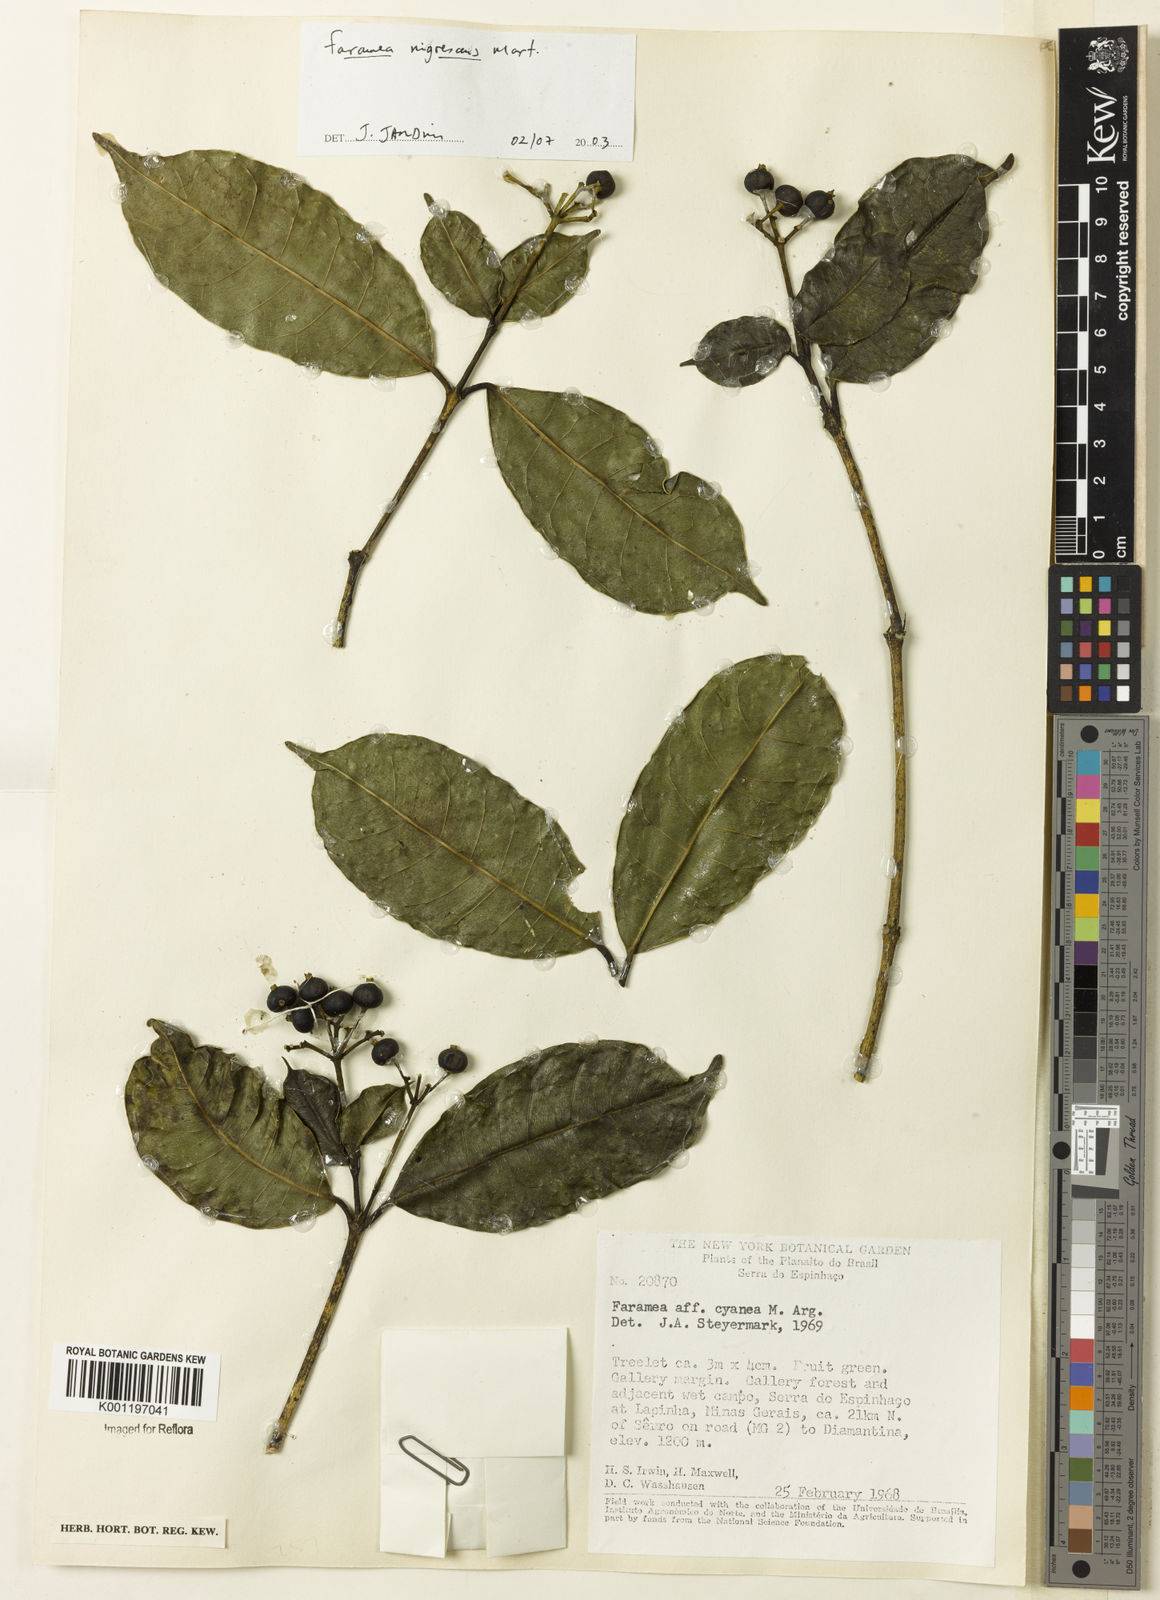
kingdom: Plantae
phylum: Tracheophyta
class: Magnoliopsida
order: Gentianales
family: Rubiaceae
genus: Faramea
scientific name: Faramea nigrescens
